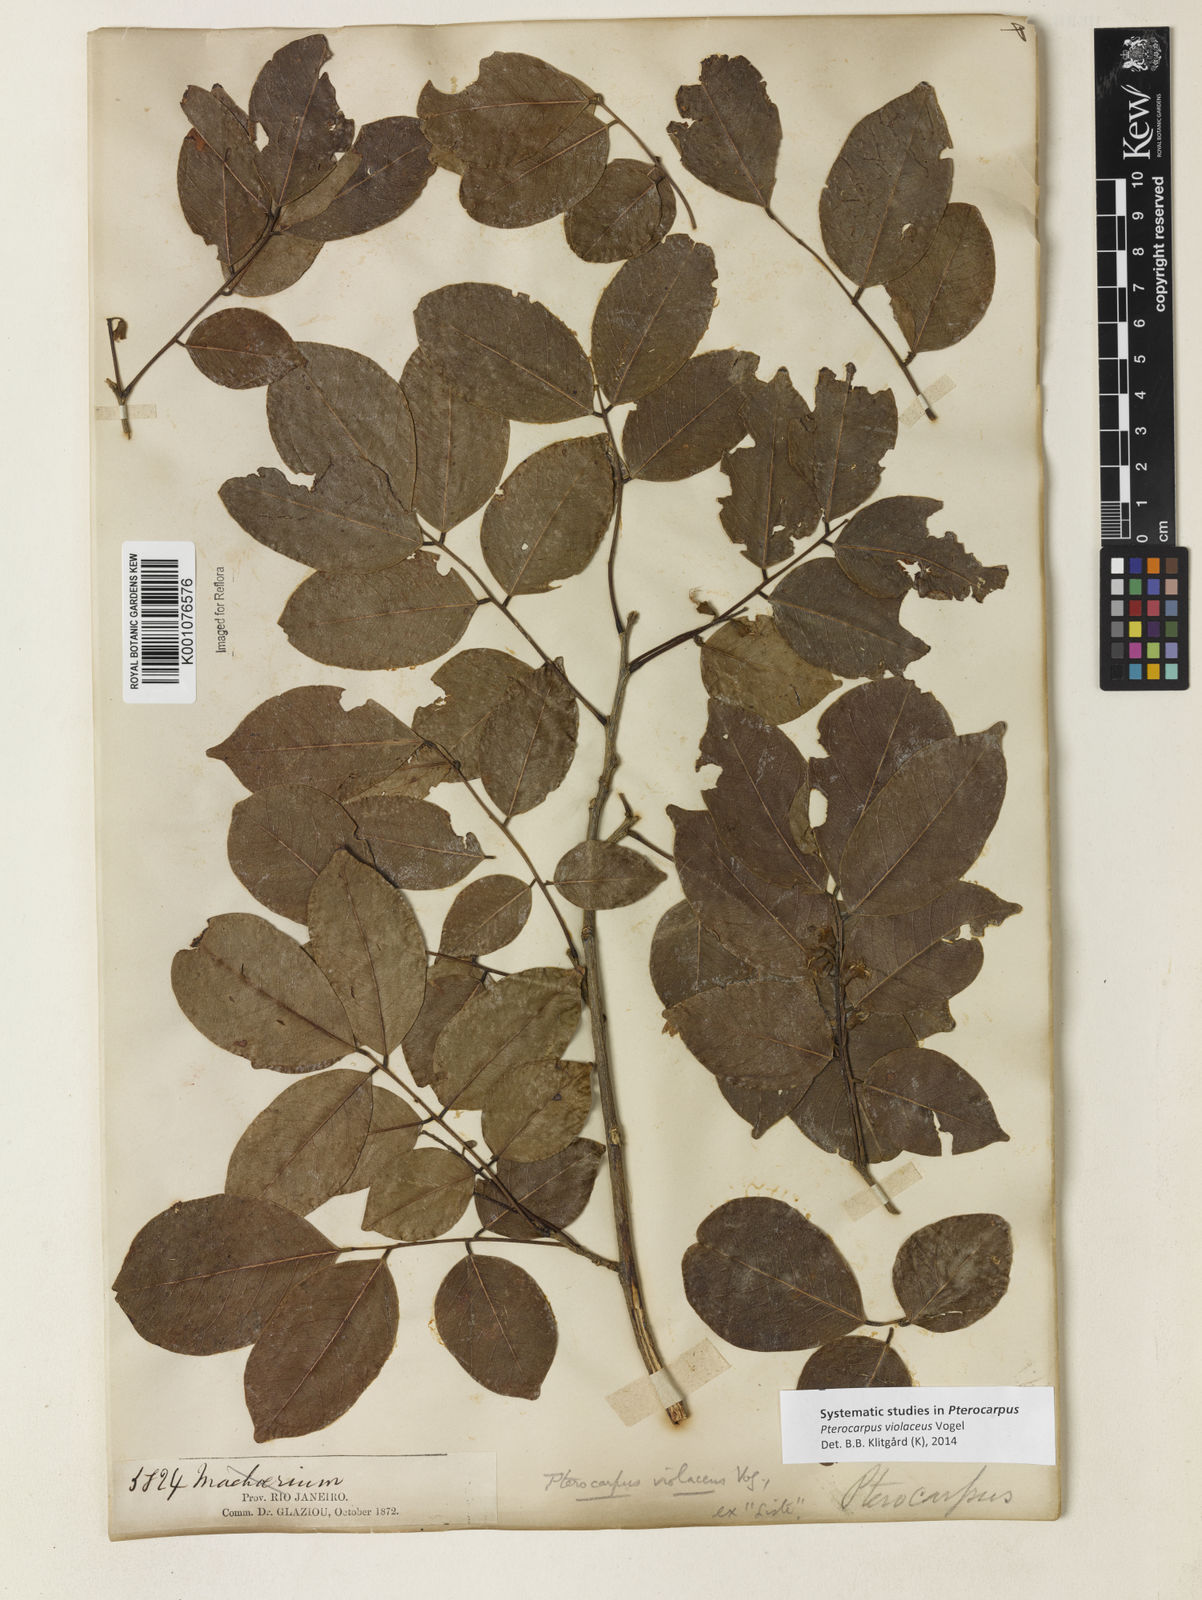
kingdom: Plantae
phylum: Tracheophyta
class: Magnoliopsida
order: Fabales
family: Fabaceae
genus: Pterocarpus
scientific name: Pterocarpus rohrii
